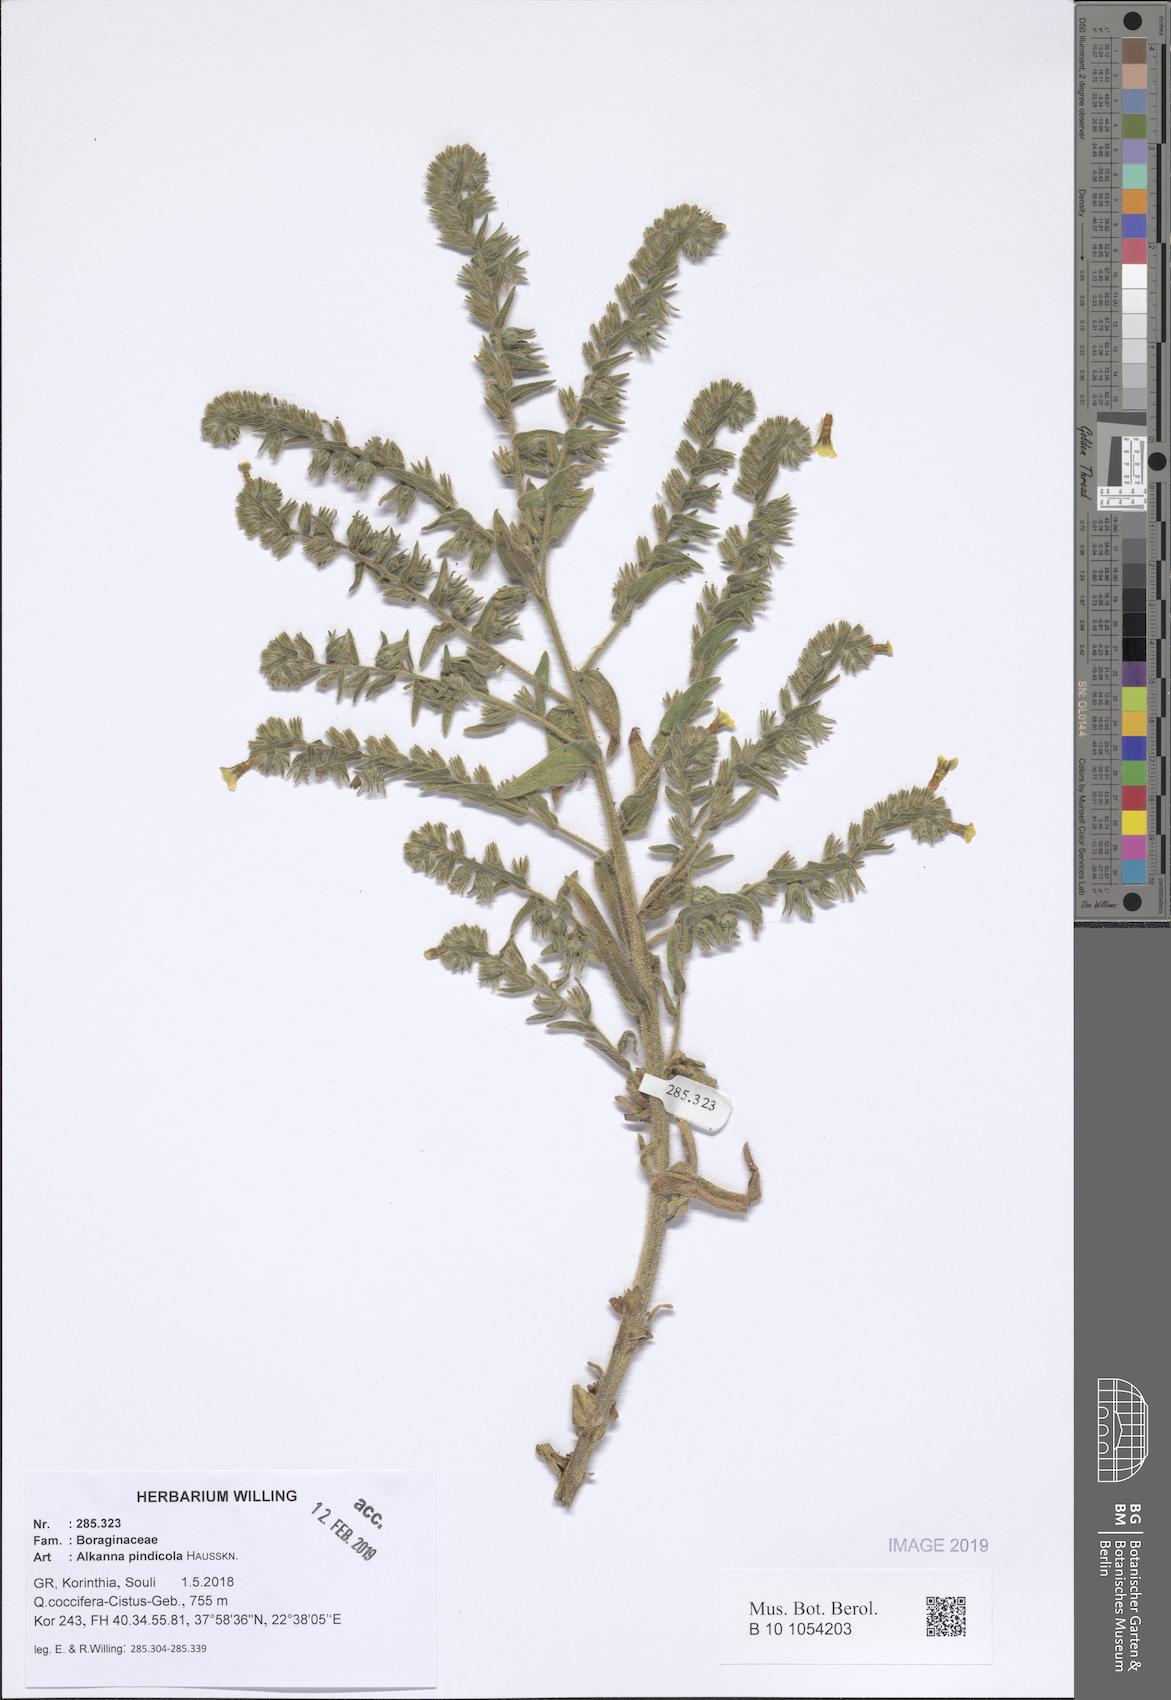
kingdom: Plantae
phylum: Tracheophyta
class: Magnoliopsida
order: Boraginales
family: Boraginaceae
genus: Alkanna
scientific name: Alkanna pindicola
